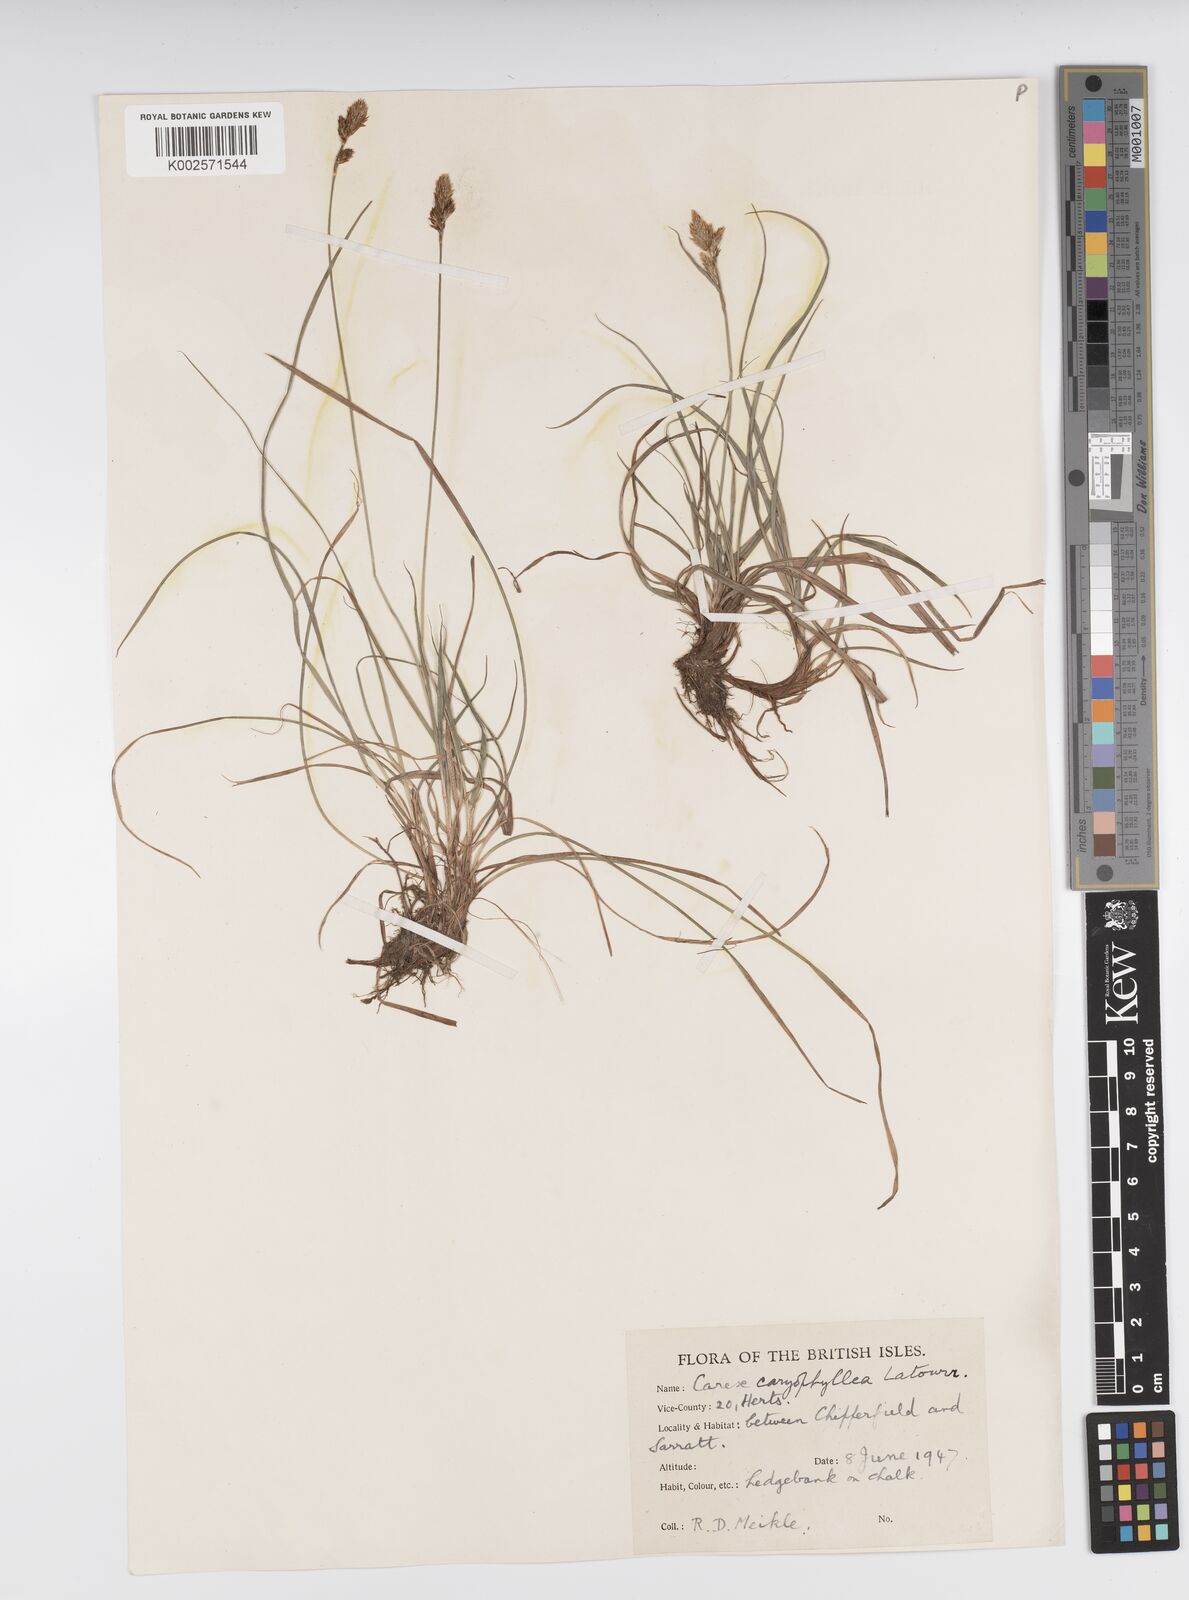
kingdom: Plantae
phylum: Tracheophyta
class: Liliopsida
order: Poales
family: Cyperaceae
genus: Carex
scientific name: Carex caryophyllea
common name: Spring sedge
